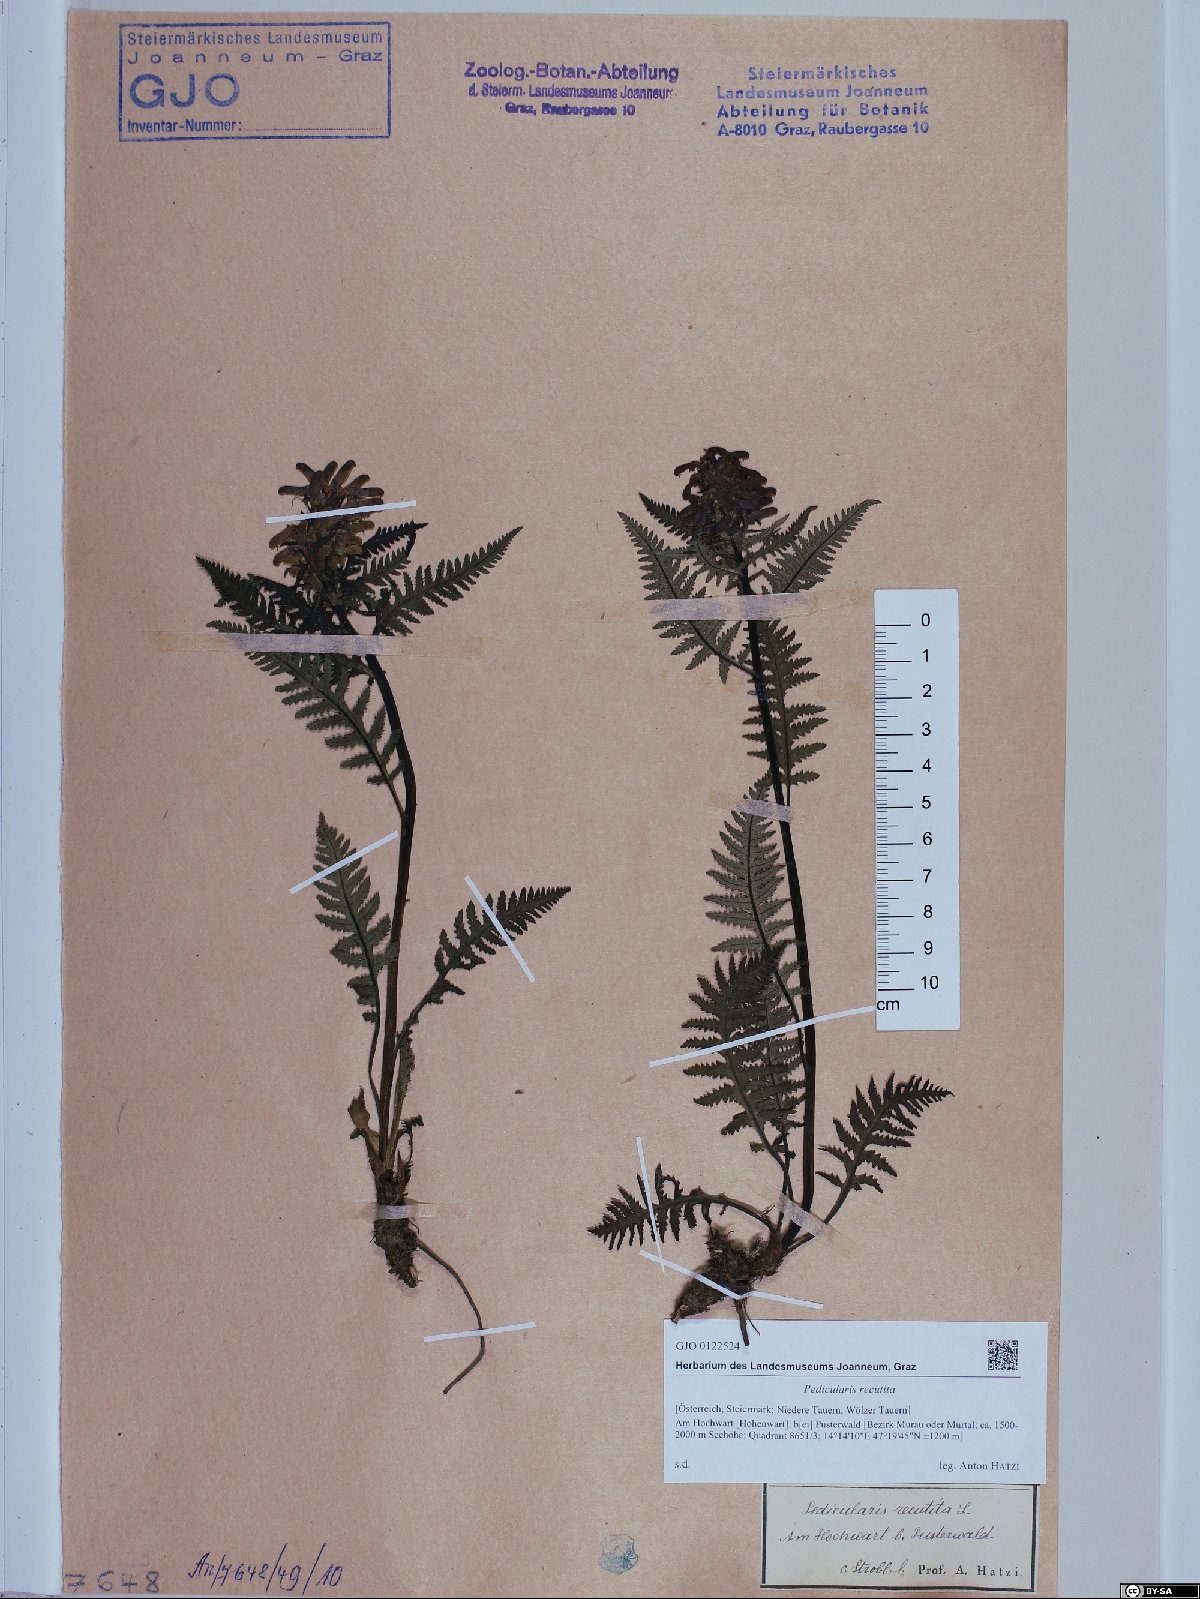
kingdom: Plantae
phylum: Tracheophyta
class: Magnoliopsida
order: Lamiales
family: Orobanchaceae
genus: Pedicularis
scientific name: Pedicularis recutita
